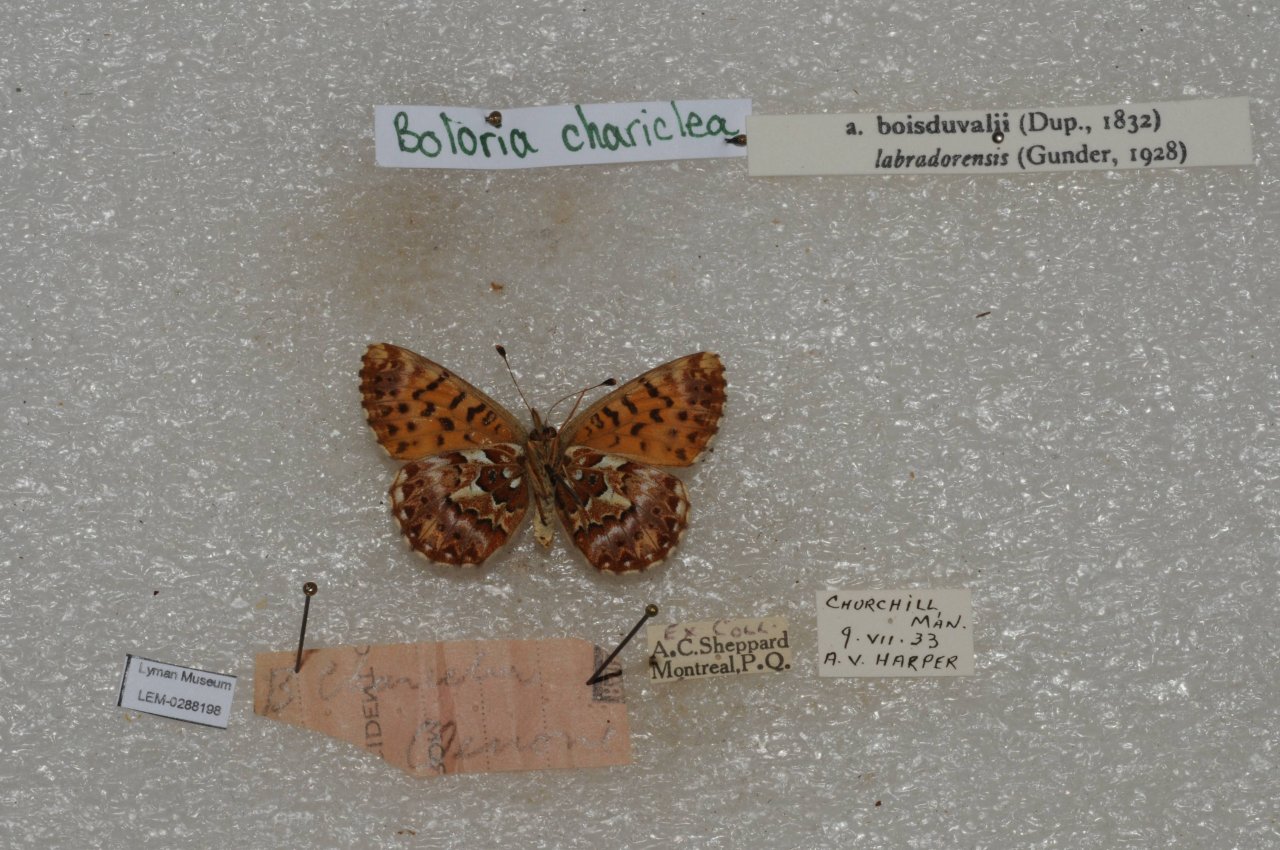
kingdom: Animalia
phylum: Arthropoda
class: Insecta
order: Lepidoptera
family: Nymphalidae
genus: Boloria
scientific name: Boloria chariclea
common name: Arctic Fritillary
